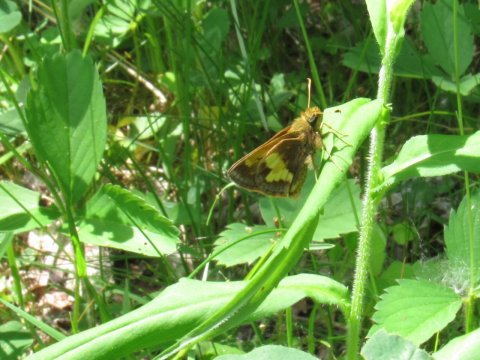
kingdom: Animalia
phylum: Arthropoda
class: Insecta
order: Lepidoptera
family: Hesperiidae
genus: Lon
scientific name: Lon hobomok
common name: Hobomok Skipper
